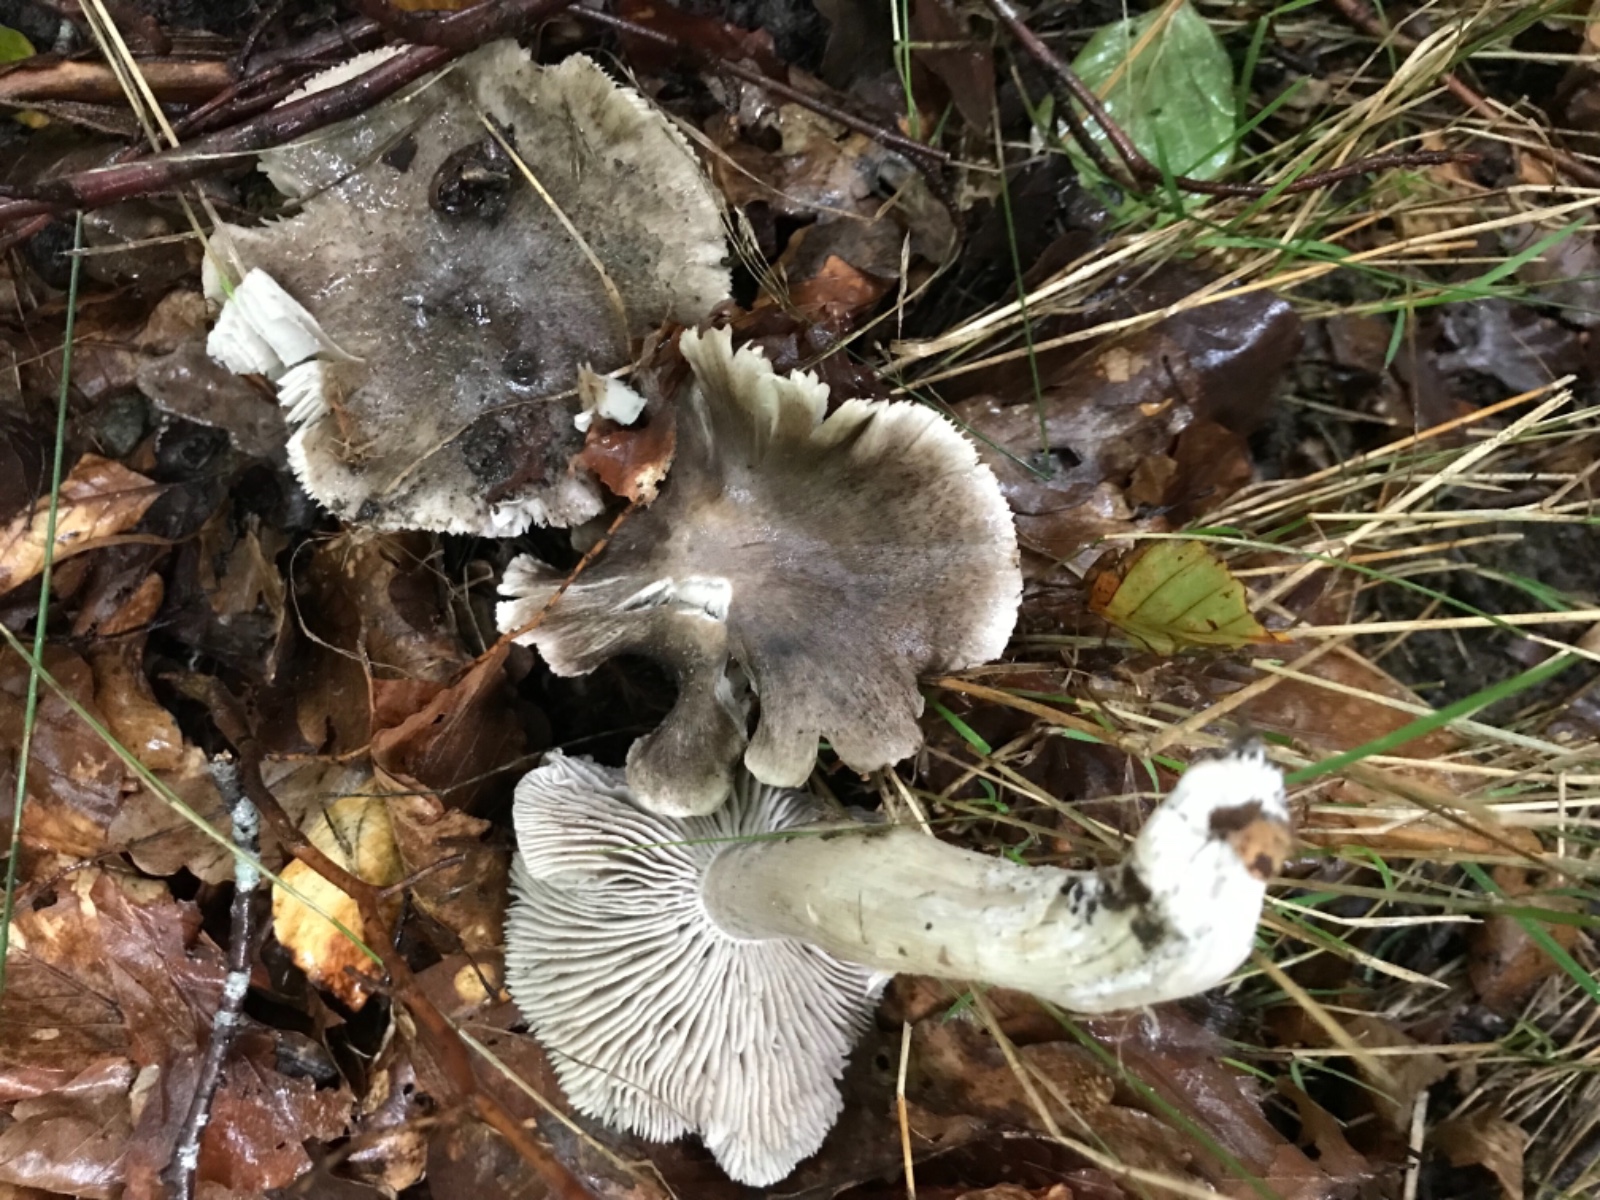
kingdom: Fungi
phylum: Basidiomycota
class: Agaricomycetes
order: Agaricales
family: Tricholomataceae
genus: Tricholoma
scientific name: Tricholoma sciodes
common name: stribet ridderhat
